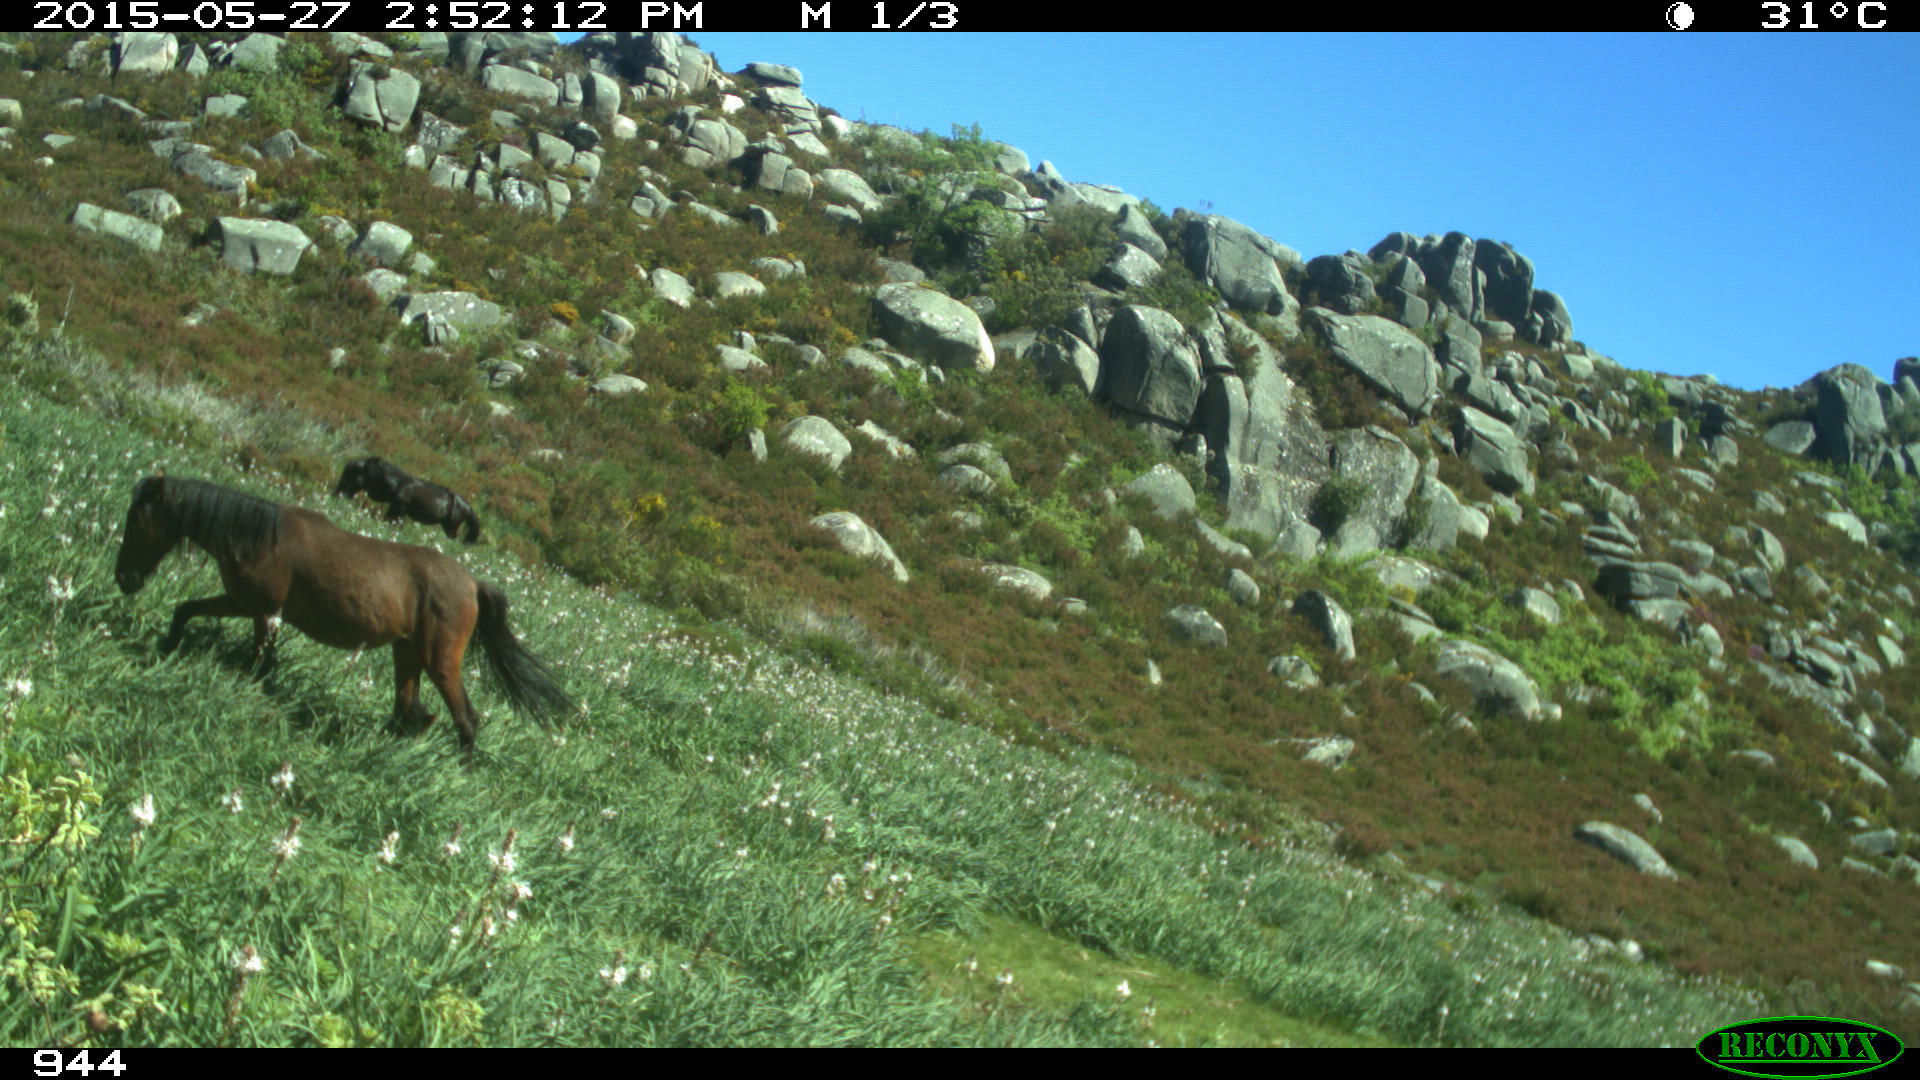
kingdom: Animalia
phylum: Chordata
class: Mammalia
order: Perissodactyla
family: Equidae
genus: Equus
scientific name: Equus caballus
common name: Horse
